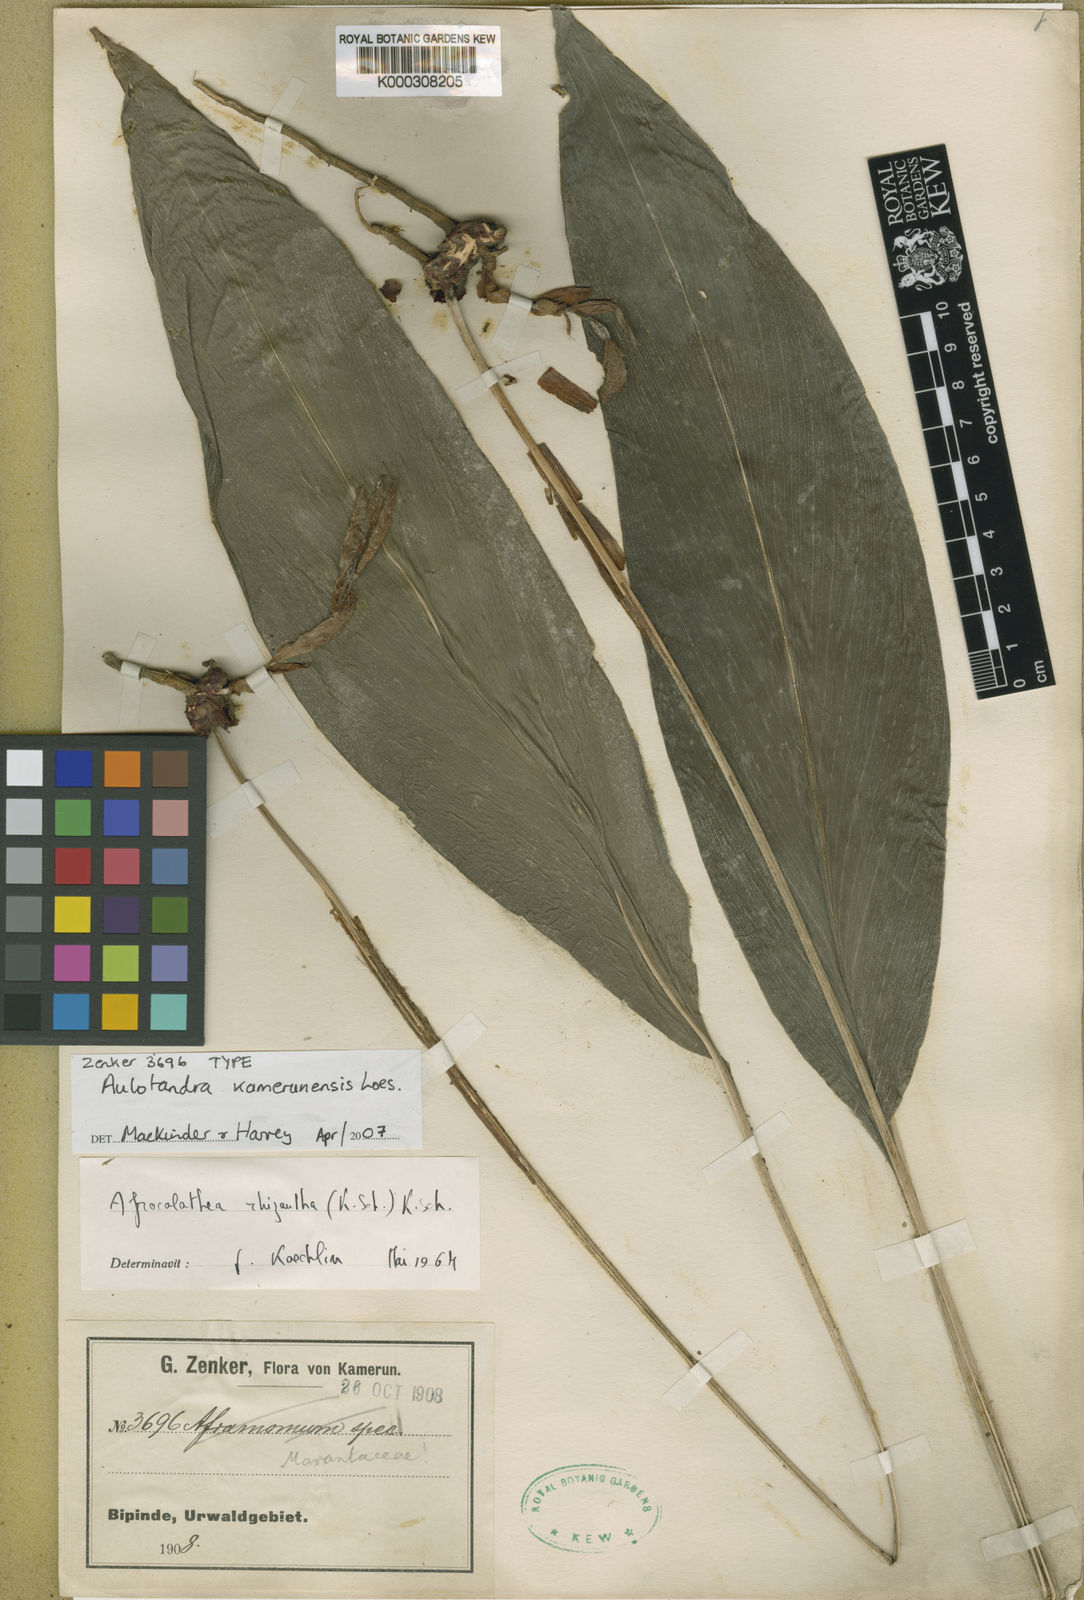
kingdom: Plantae
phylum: Tracheophyta
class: Liliopsida
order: Zingiberales
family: Zingiberaceae
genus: Aulotandra
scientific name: Aulotandra kamerunensis
